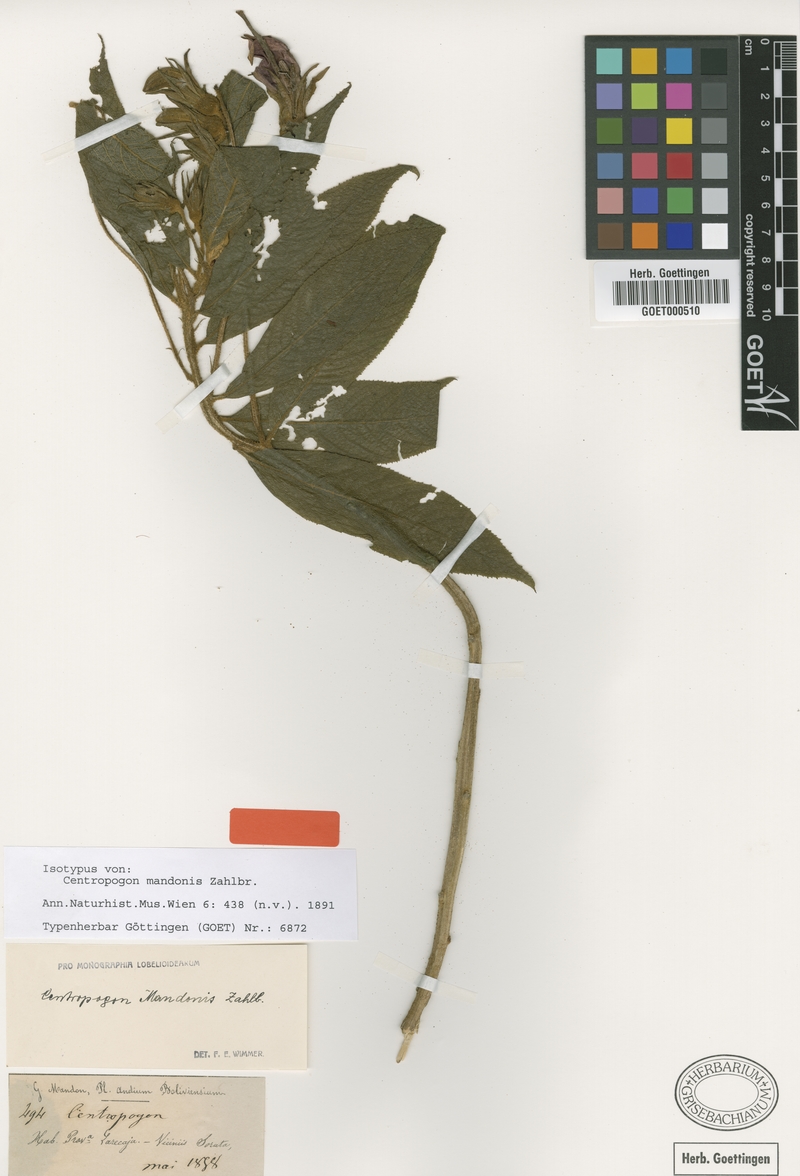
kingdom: Plantae
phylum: Tracheophyta
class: Magnoliopsida
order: Asterales
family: Campanulaceae
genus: Centropogon
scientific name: Centropogon mandonis
